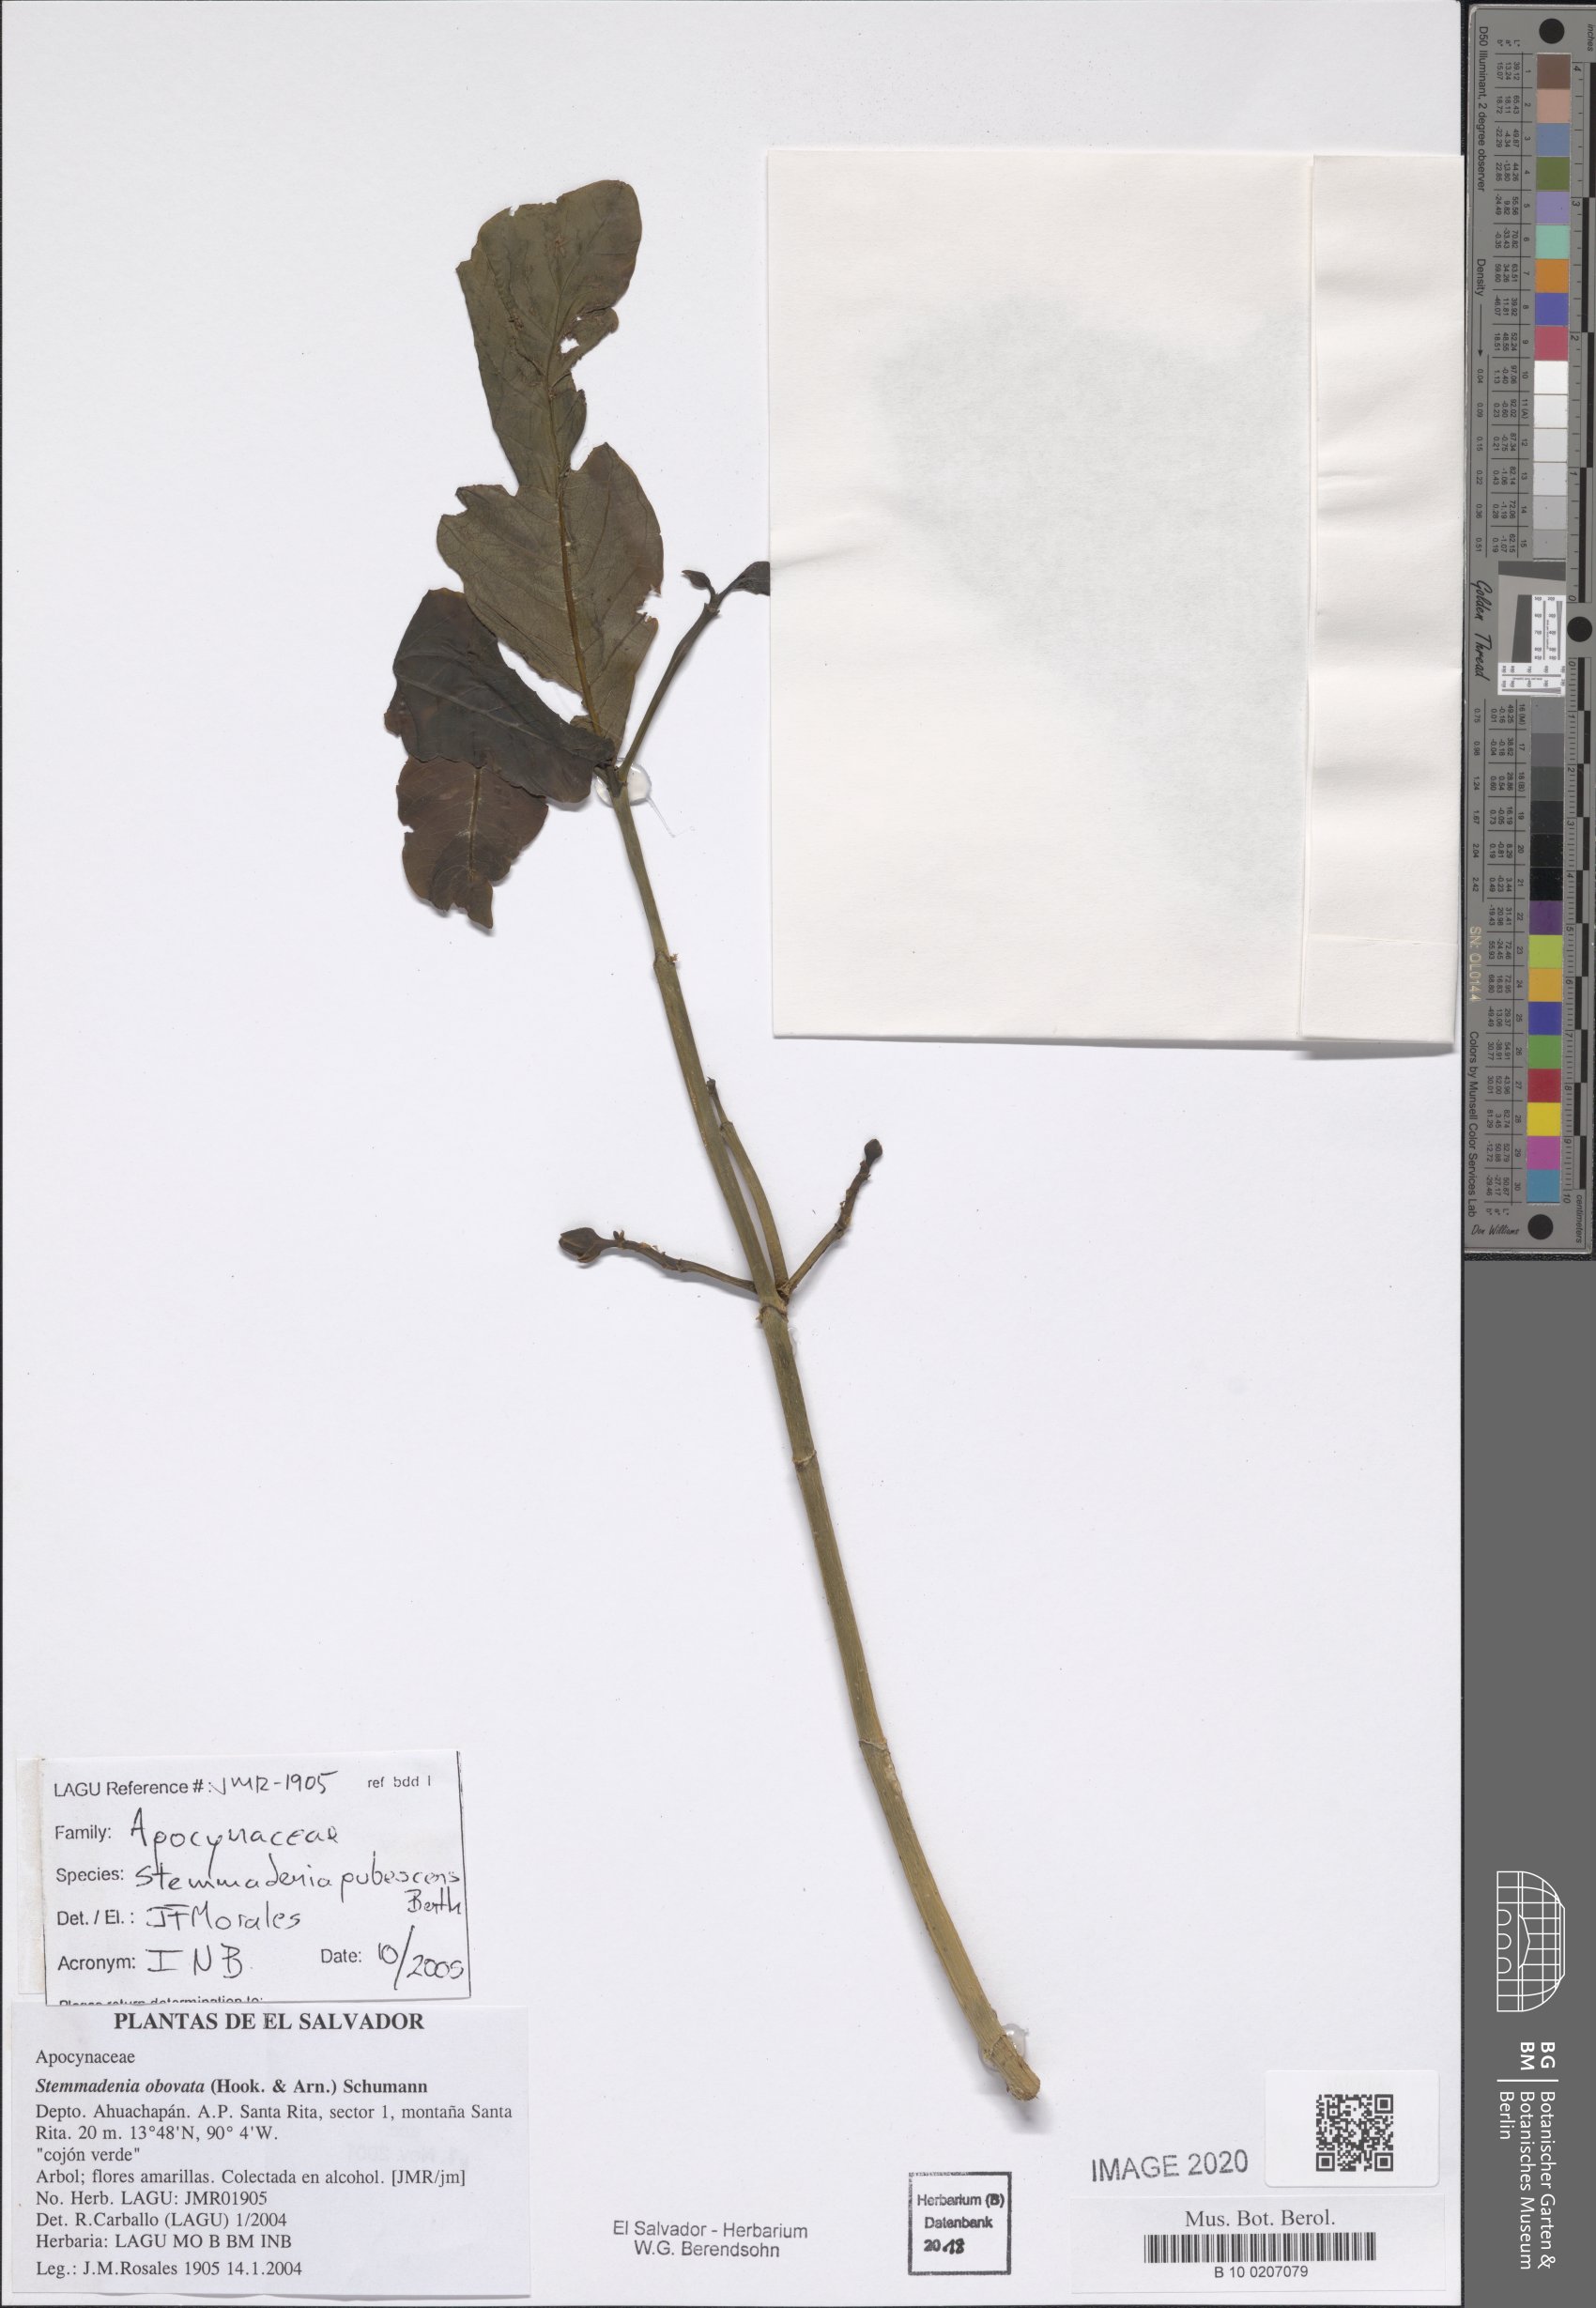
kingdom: Plantae
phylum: Tracheophyta
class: Magnoliopsida
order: Gentianales
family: Apocynaceae
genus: Tabernaemontana
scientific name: Tabernaemontana glabra
